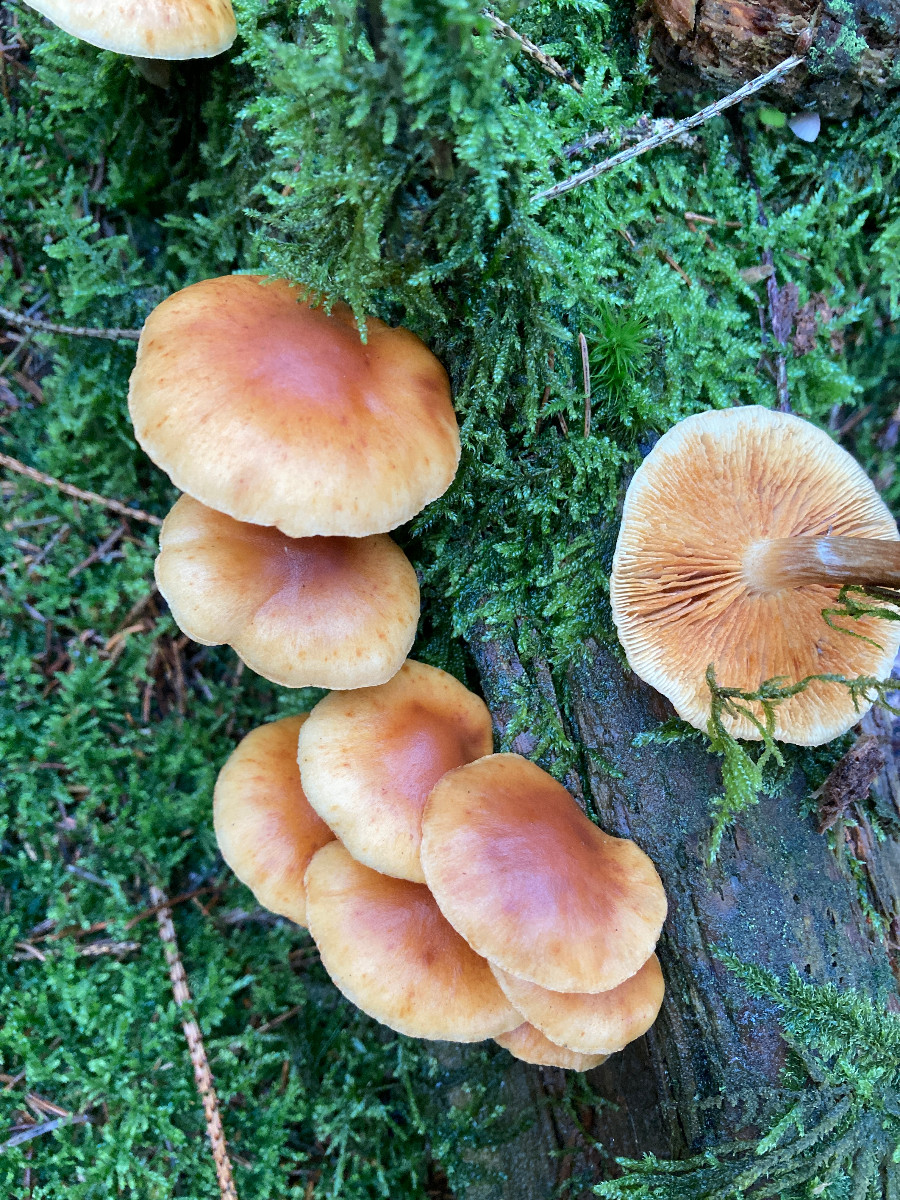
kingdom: Fungi
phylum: Basidiomycota
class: Agaricomycetes
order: Agaricales
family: Hymenogastraceae
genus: Gymnopilus
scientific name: Gymnopilus penetrans
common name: plettet flammehat
